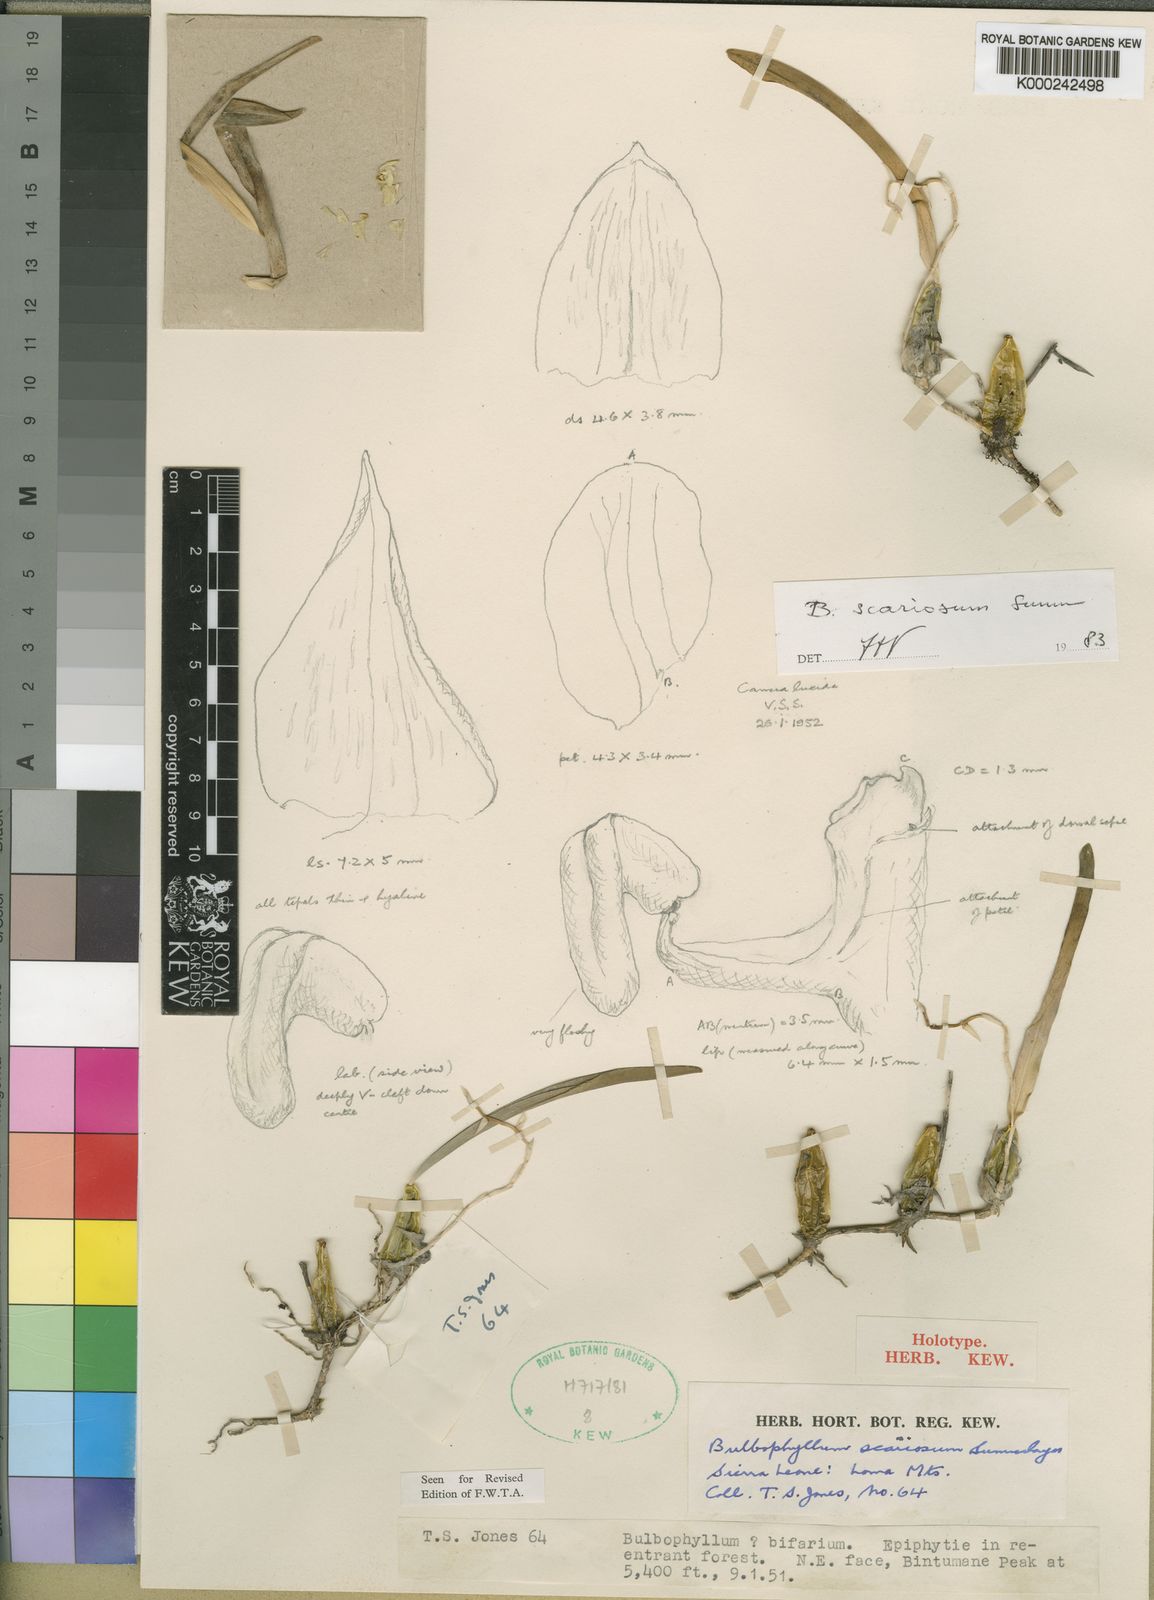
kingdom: Plantae
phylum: Tracheophyta
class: Liliopsida
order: Asparagales
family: Orchidaceae
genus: Bulbophyllum
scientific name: Bulbophyllum scariosum
